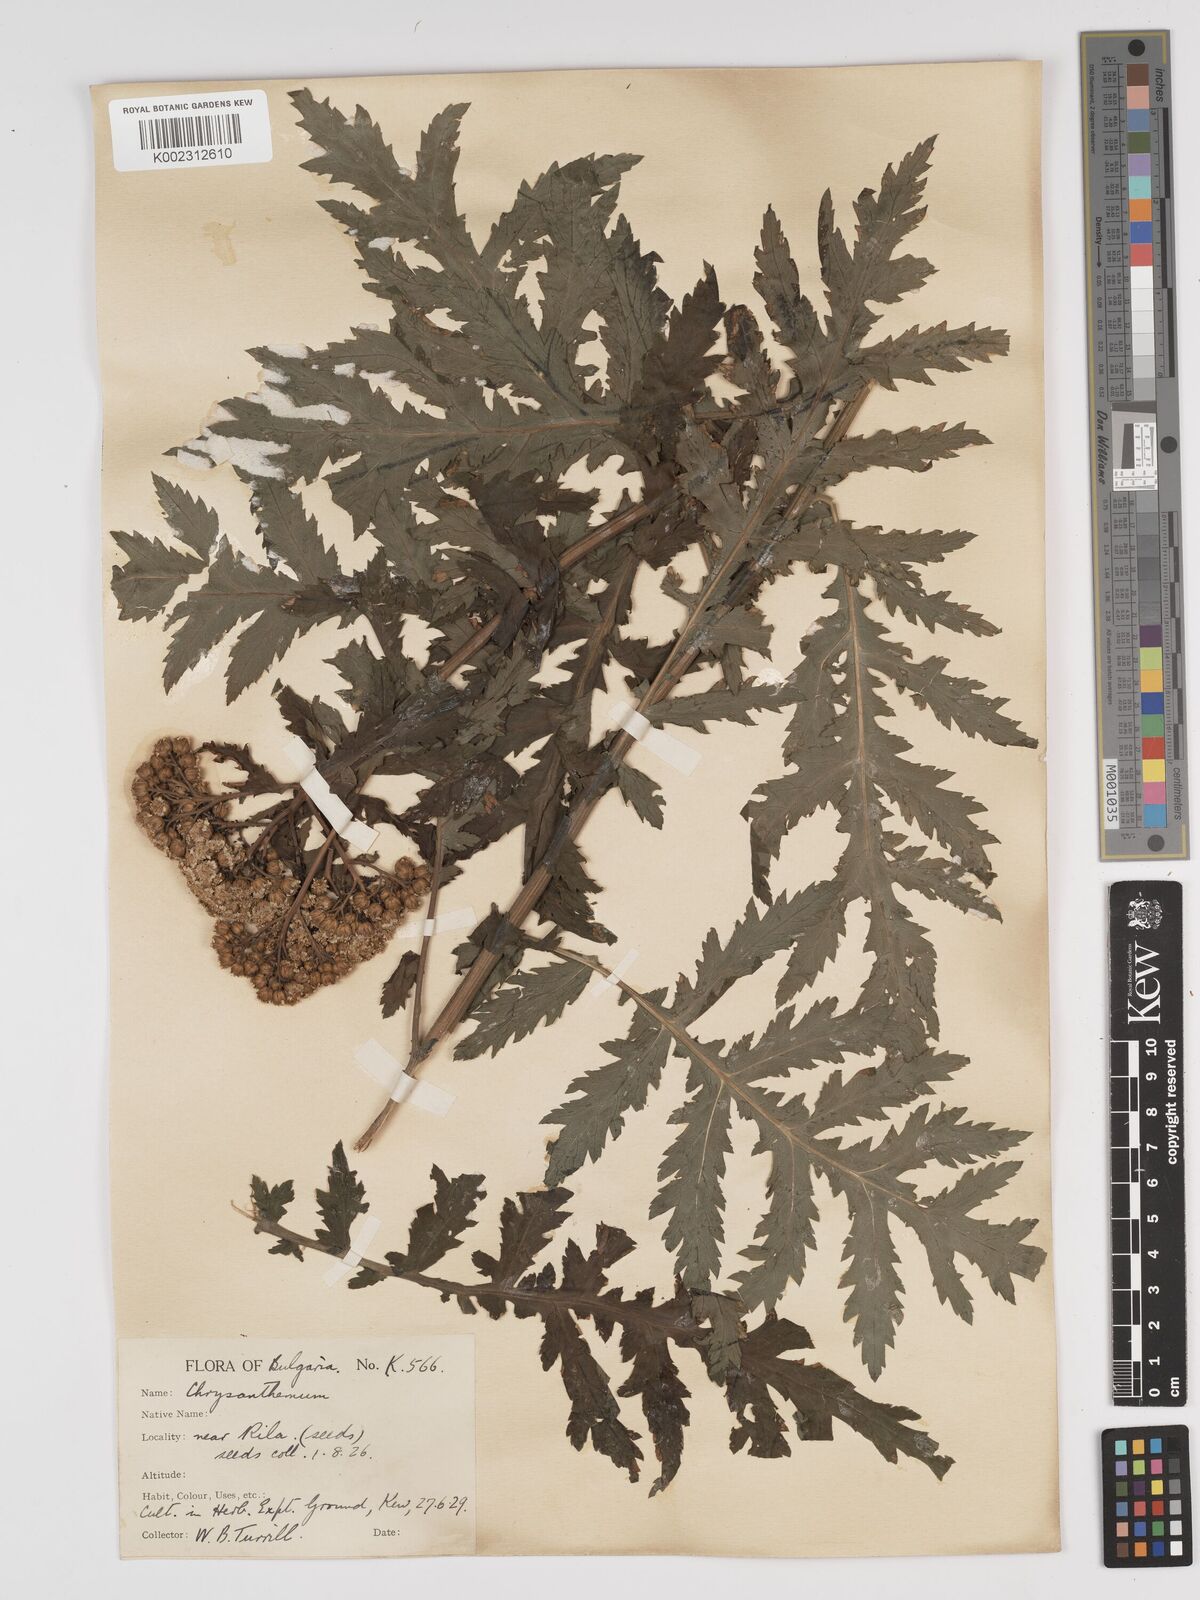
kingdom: Plantae
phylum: Tracheophyta
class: Magnoliopsida
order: Asterales
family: Asteraceae
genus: Tanacetum
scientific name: Tanacetum macrophyllum
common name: Rayed tansy
